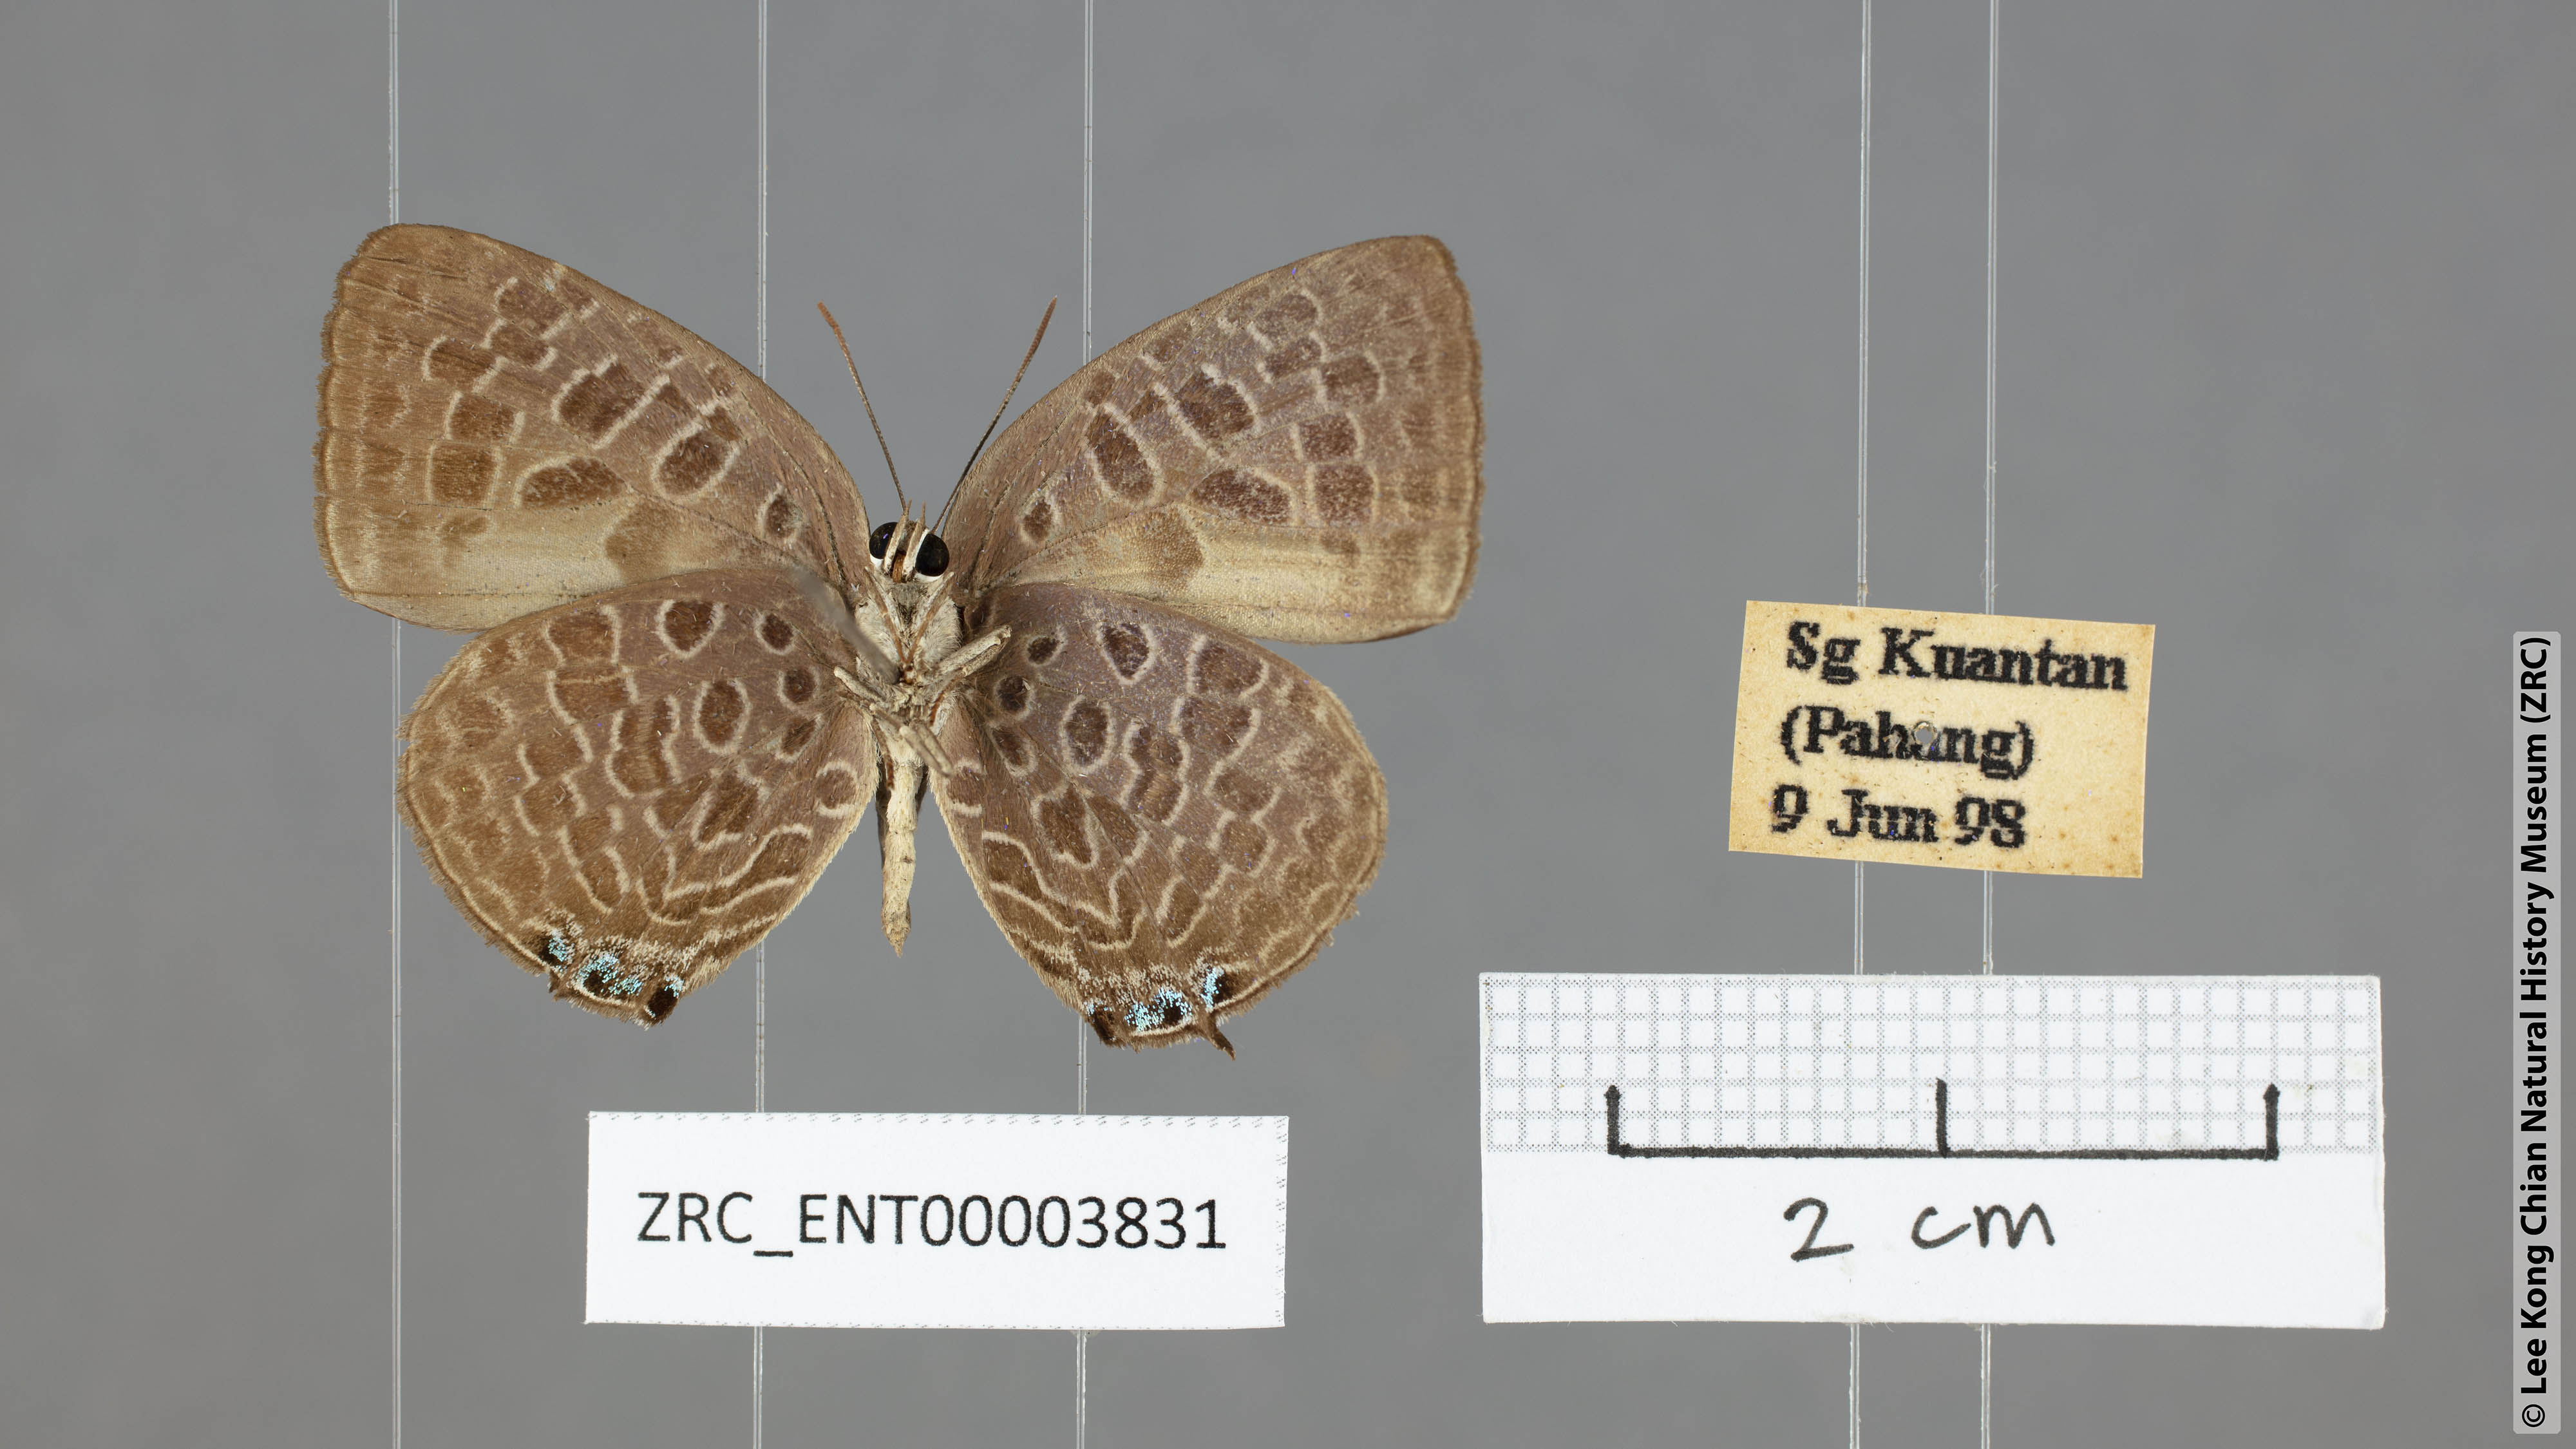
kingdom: Animalia
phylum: Arthropoda
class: Insecta
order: Lepidoptera
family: Lycaenidae
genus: Arhopala
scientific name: Arhopala alitaeus
